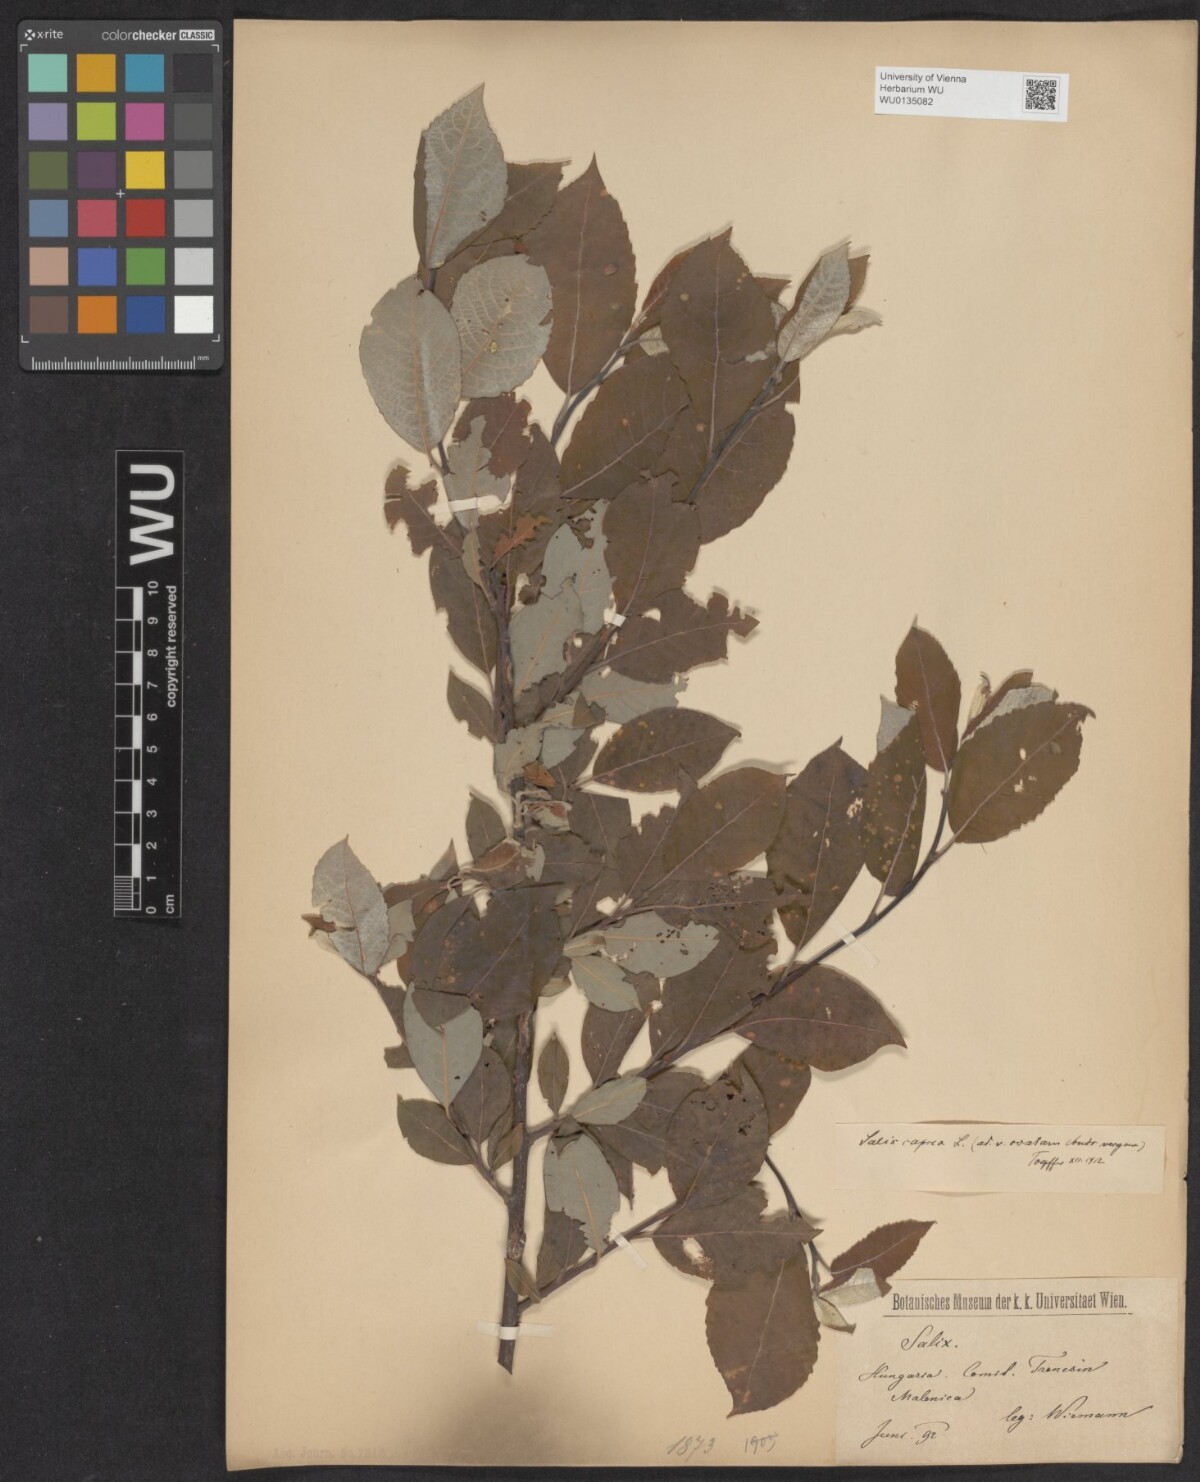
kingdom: Plantae
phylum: Tracheophyta
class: Magnoliopsida
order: Malpighiales
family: Salicaceae
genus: Salix
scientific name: Salix caprea
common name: Goat willow
